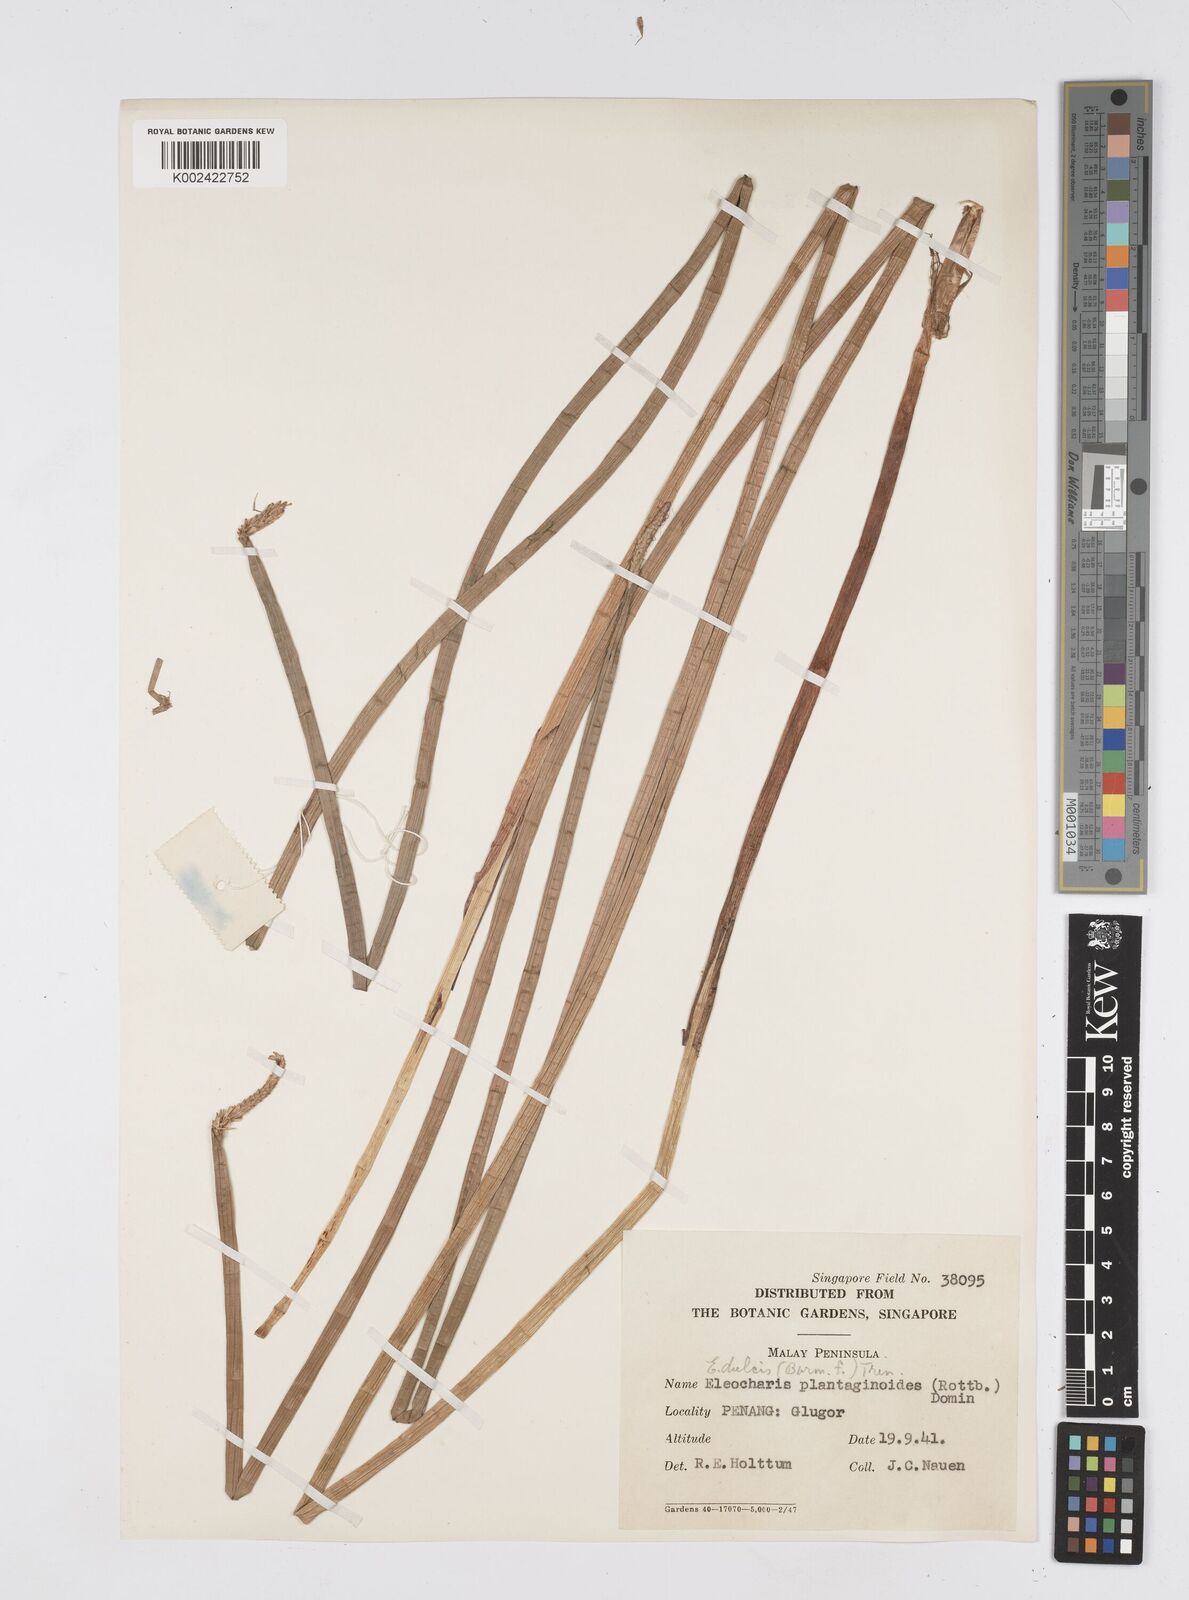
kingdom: Plantae
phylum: Tracheophyta
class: Liliopsida
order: Poales
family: Cyperaceae
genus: Eleocharis
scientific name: Eleocharis dulcis
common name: Chinese water chestnut
